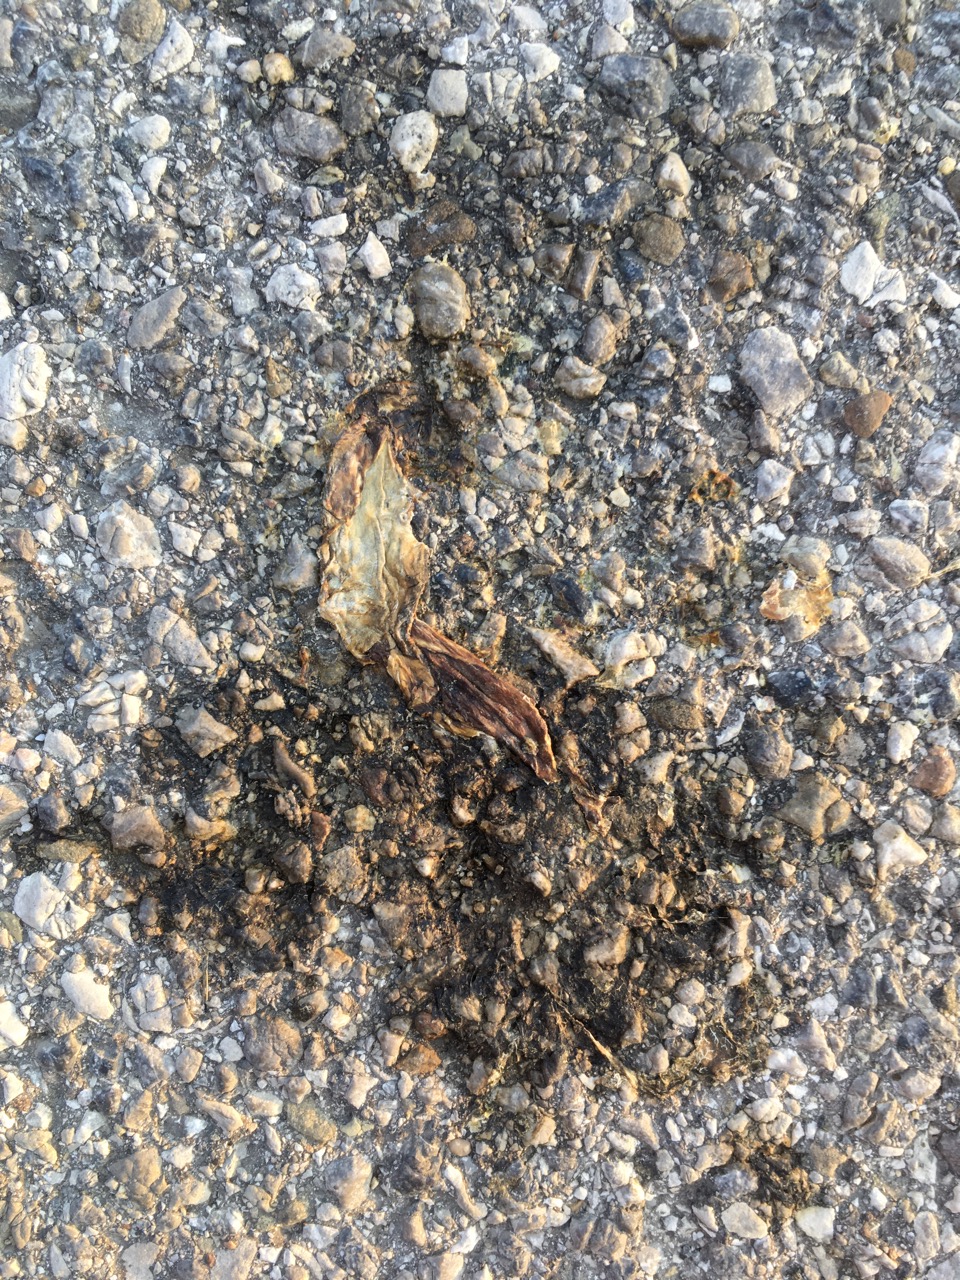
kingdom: Animalia
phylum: Chordata
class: Amphibia
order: Anura
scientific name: Anura
